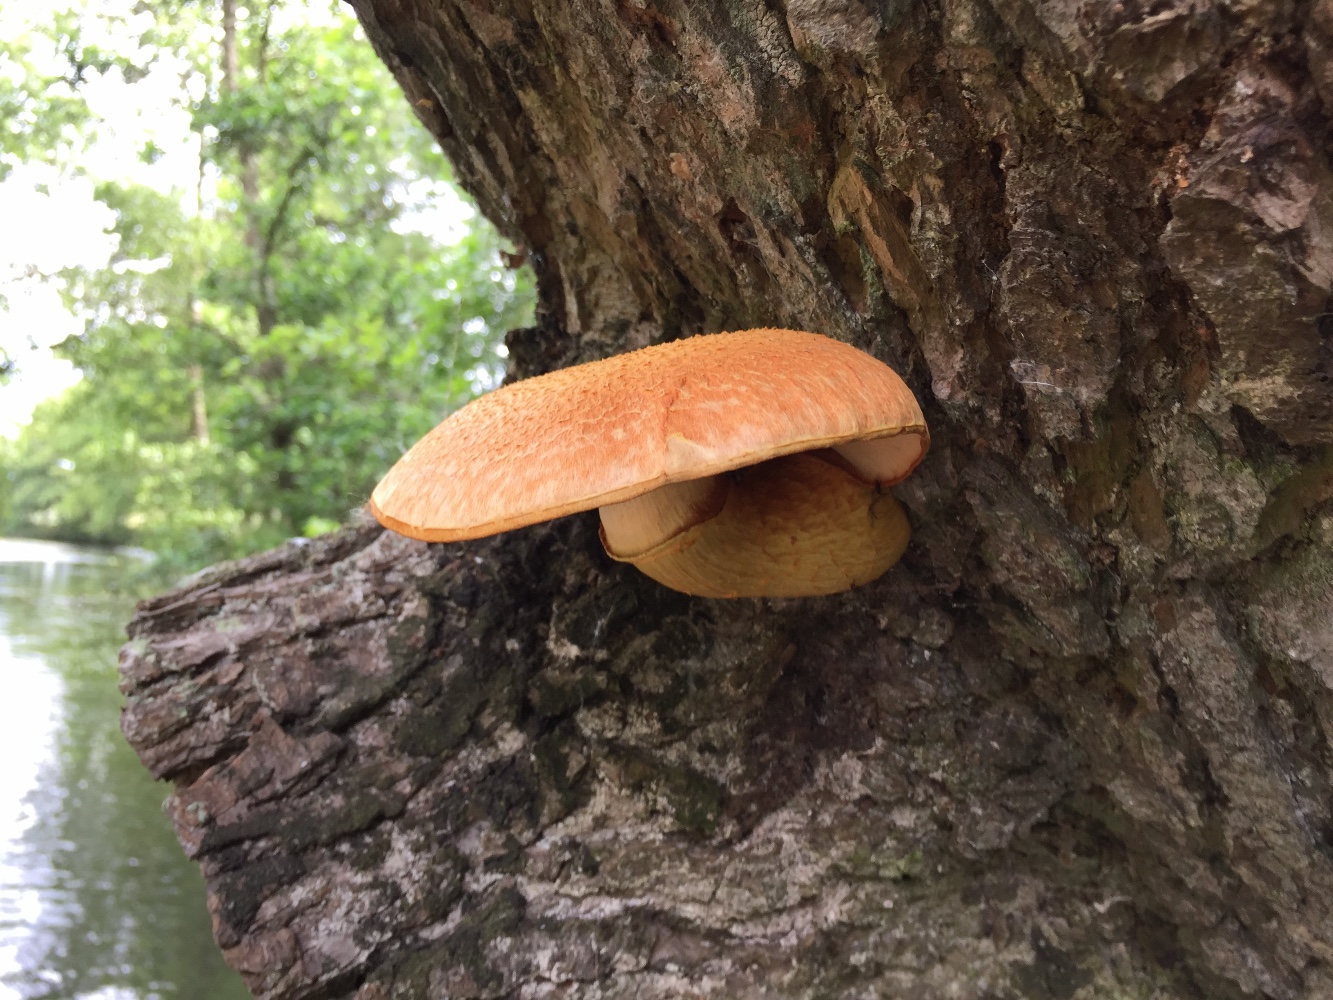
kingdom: Fungi
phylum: Basidiomycota
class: Agaricomycetes
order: Agaricales
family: Hymenogastraceae
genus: Gymnopilus
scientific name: Gymnopilus spectabilis
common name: fibret flammehat
